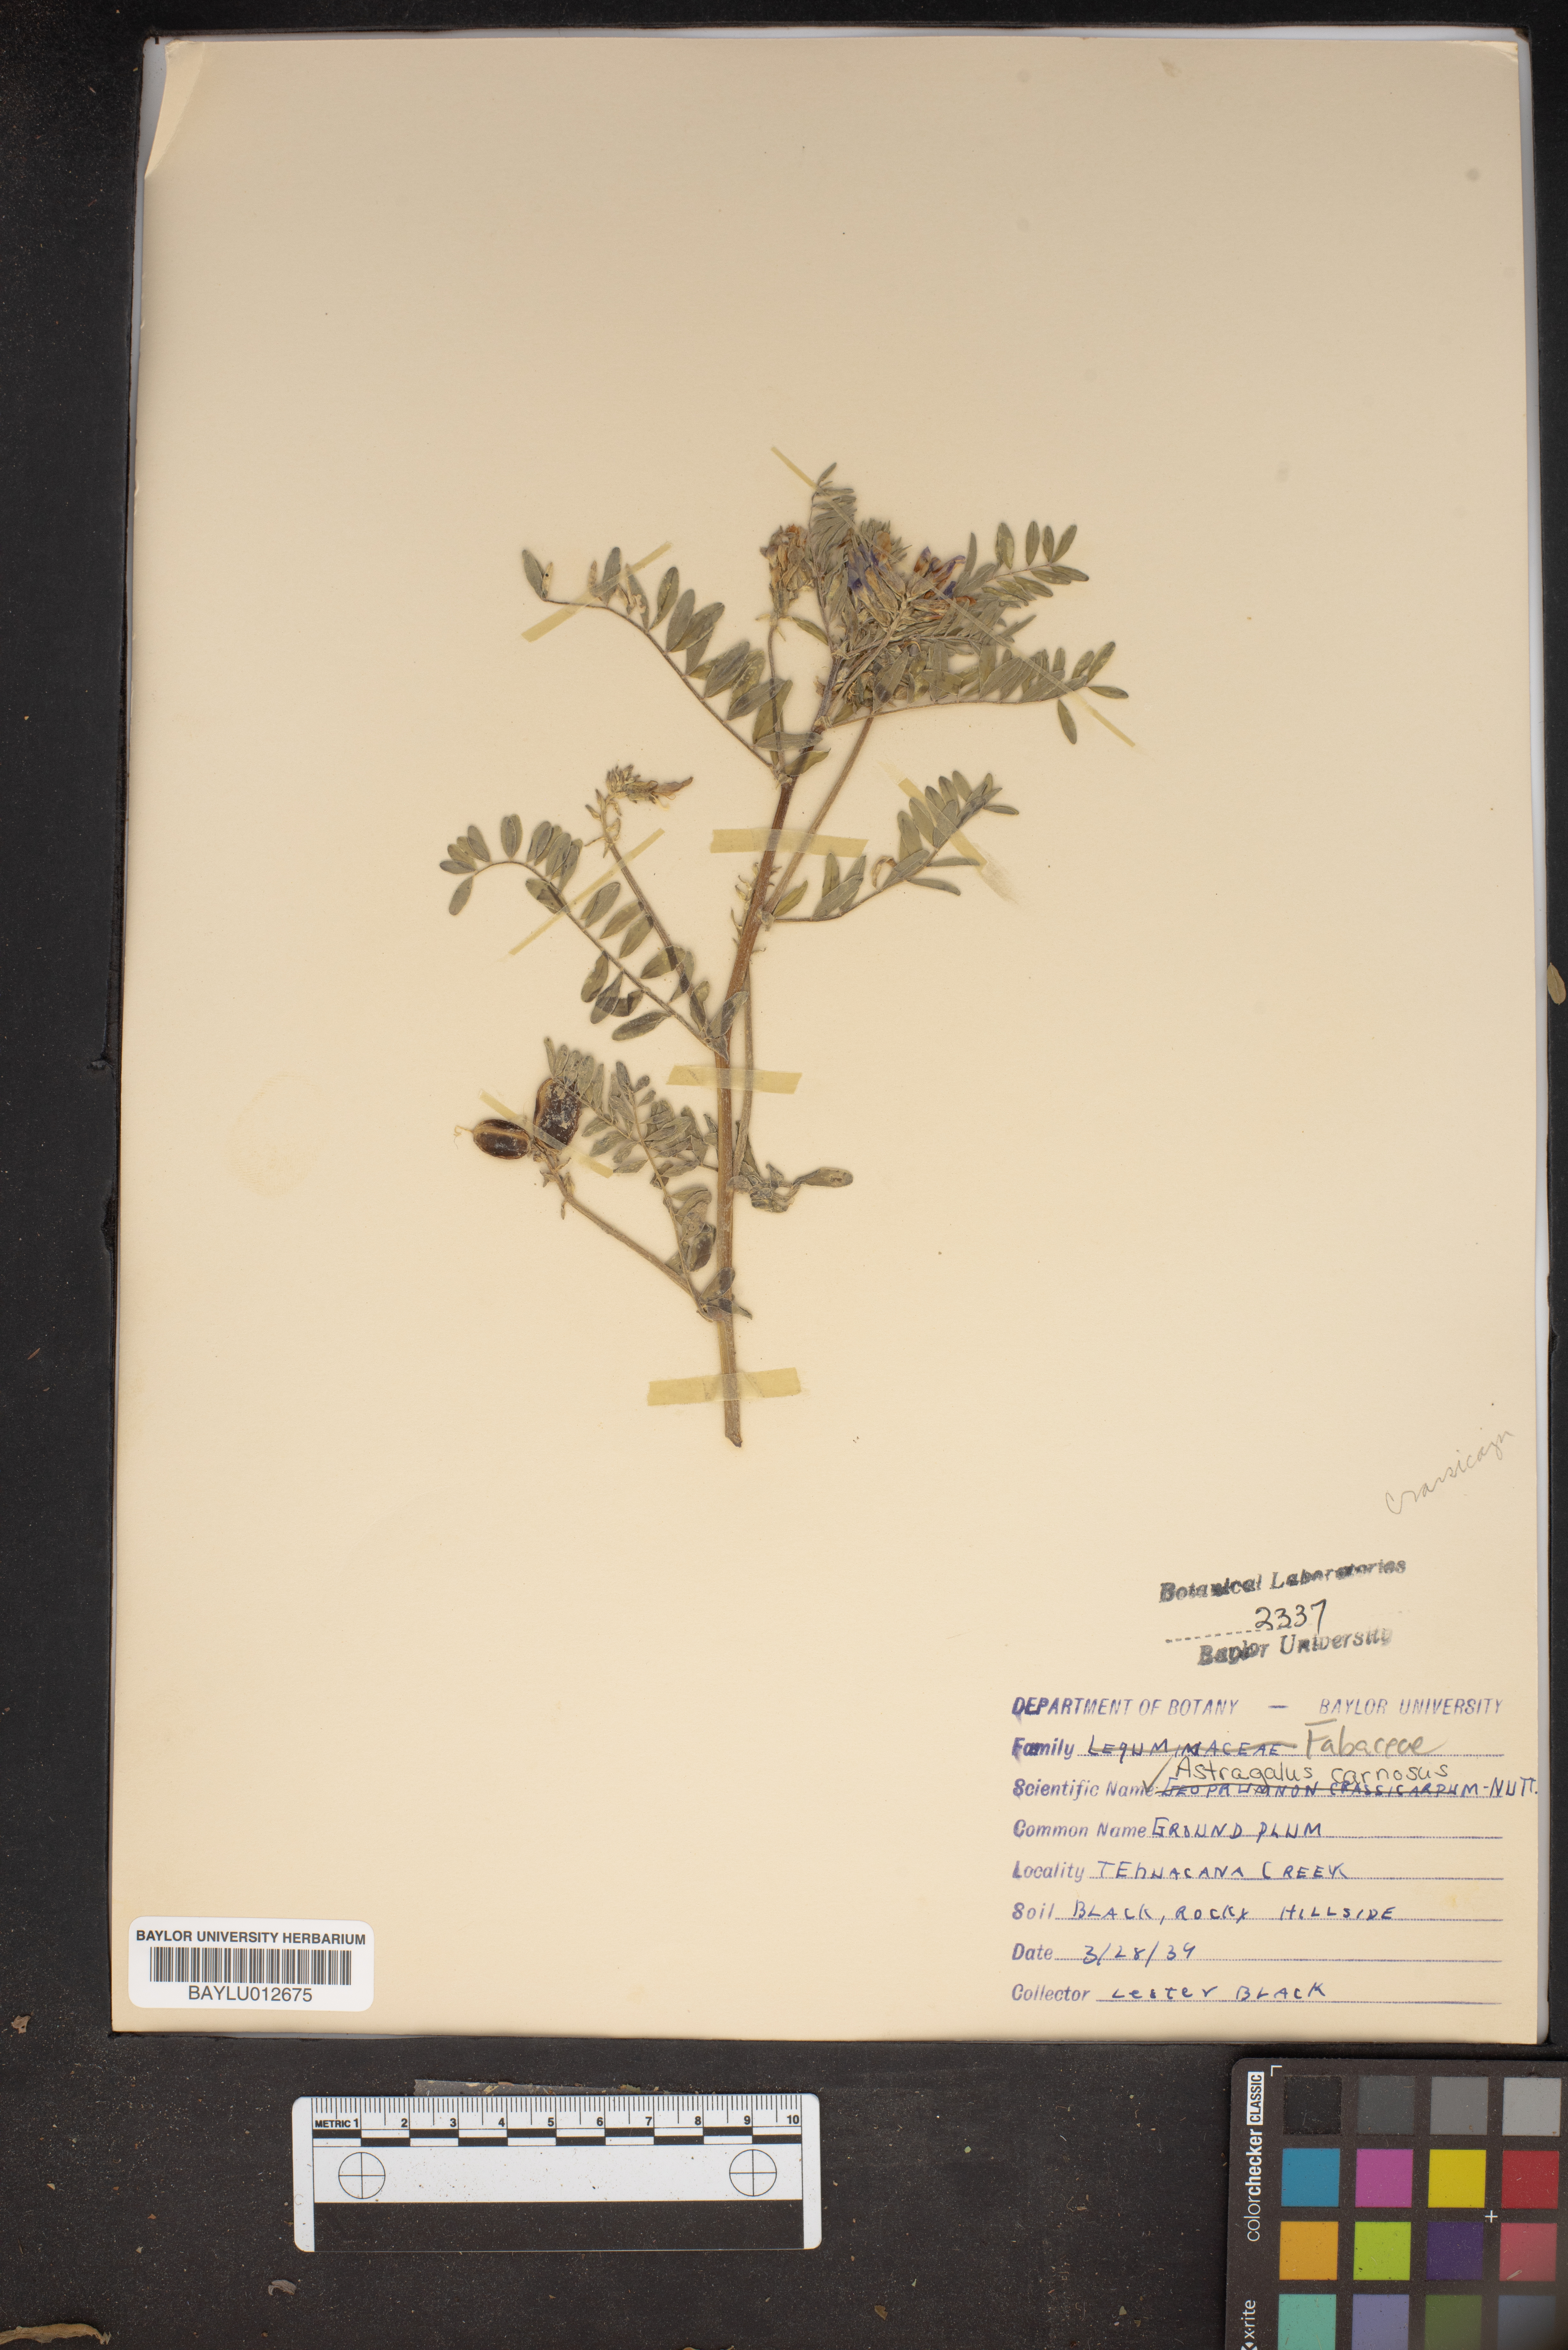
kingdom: Plantae
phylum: Tracheophyta
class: Magnoliopsida
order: Fabales
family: Fabaceae
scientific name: Fabaceae
